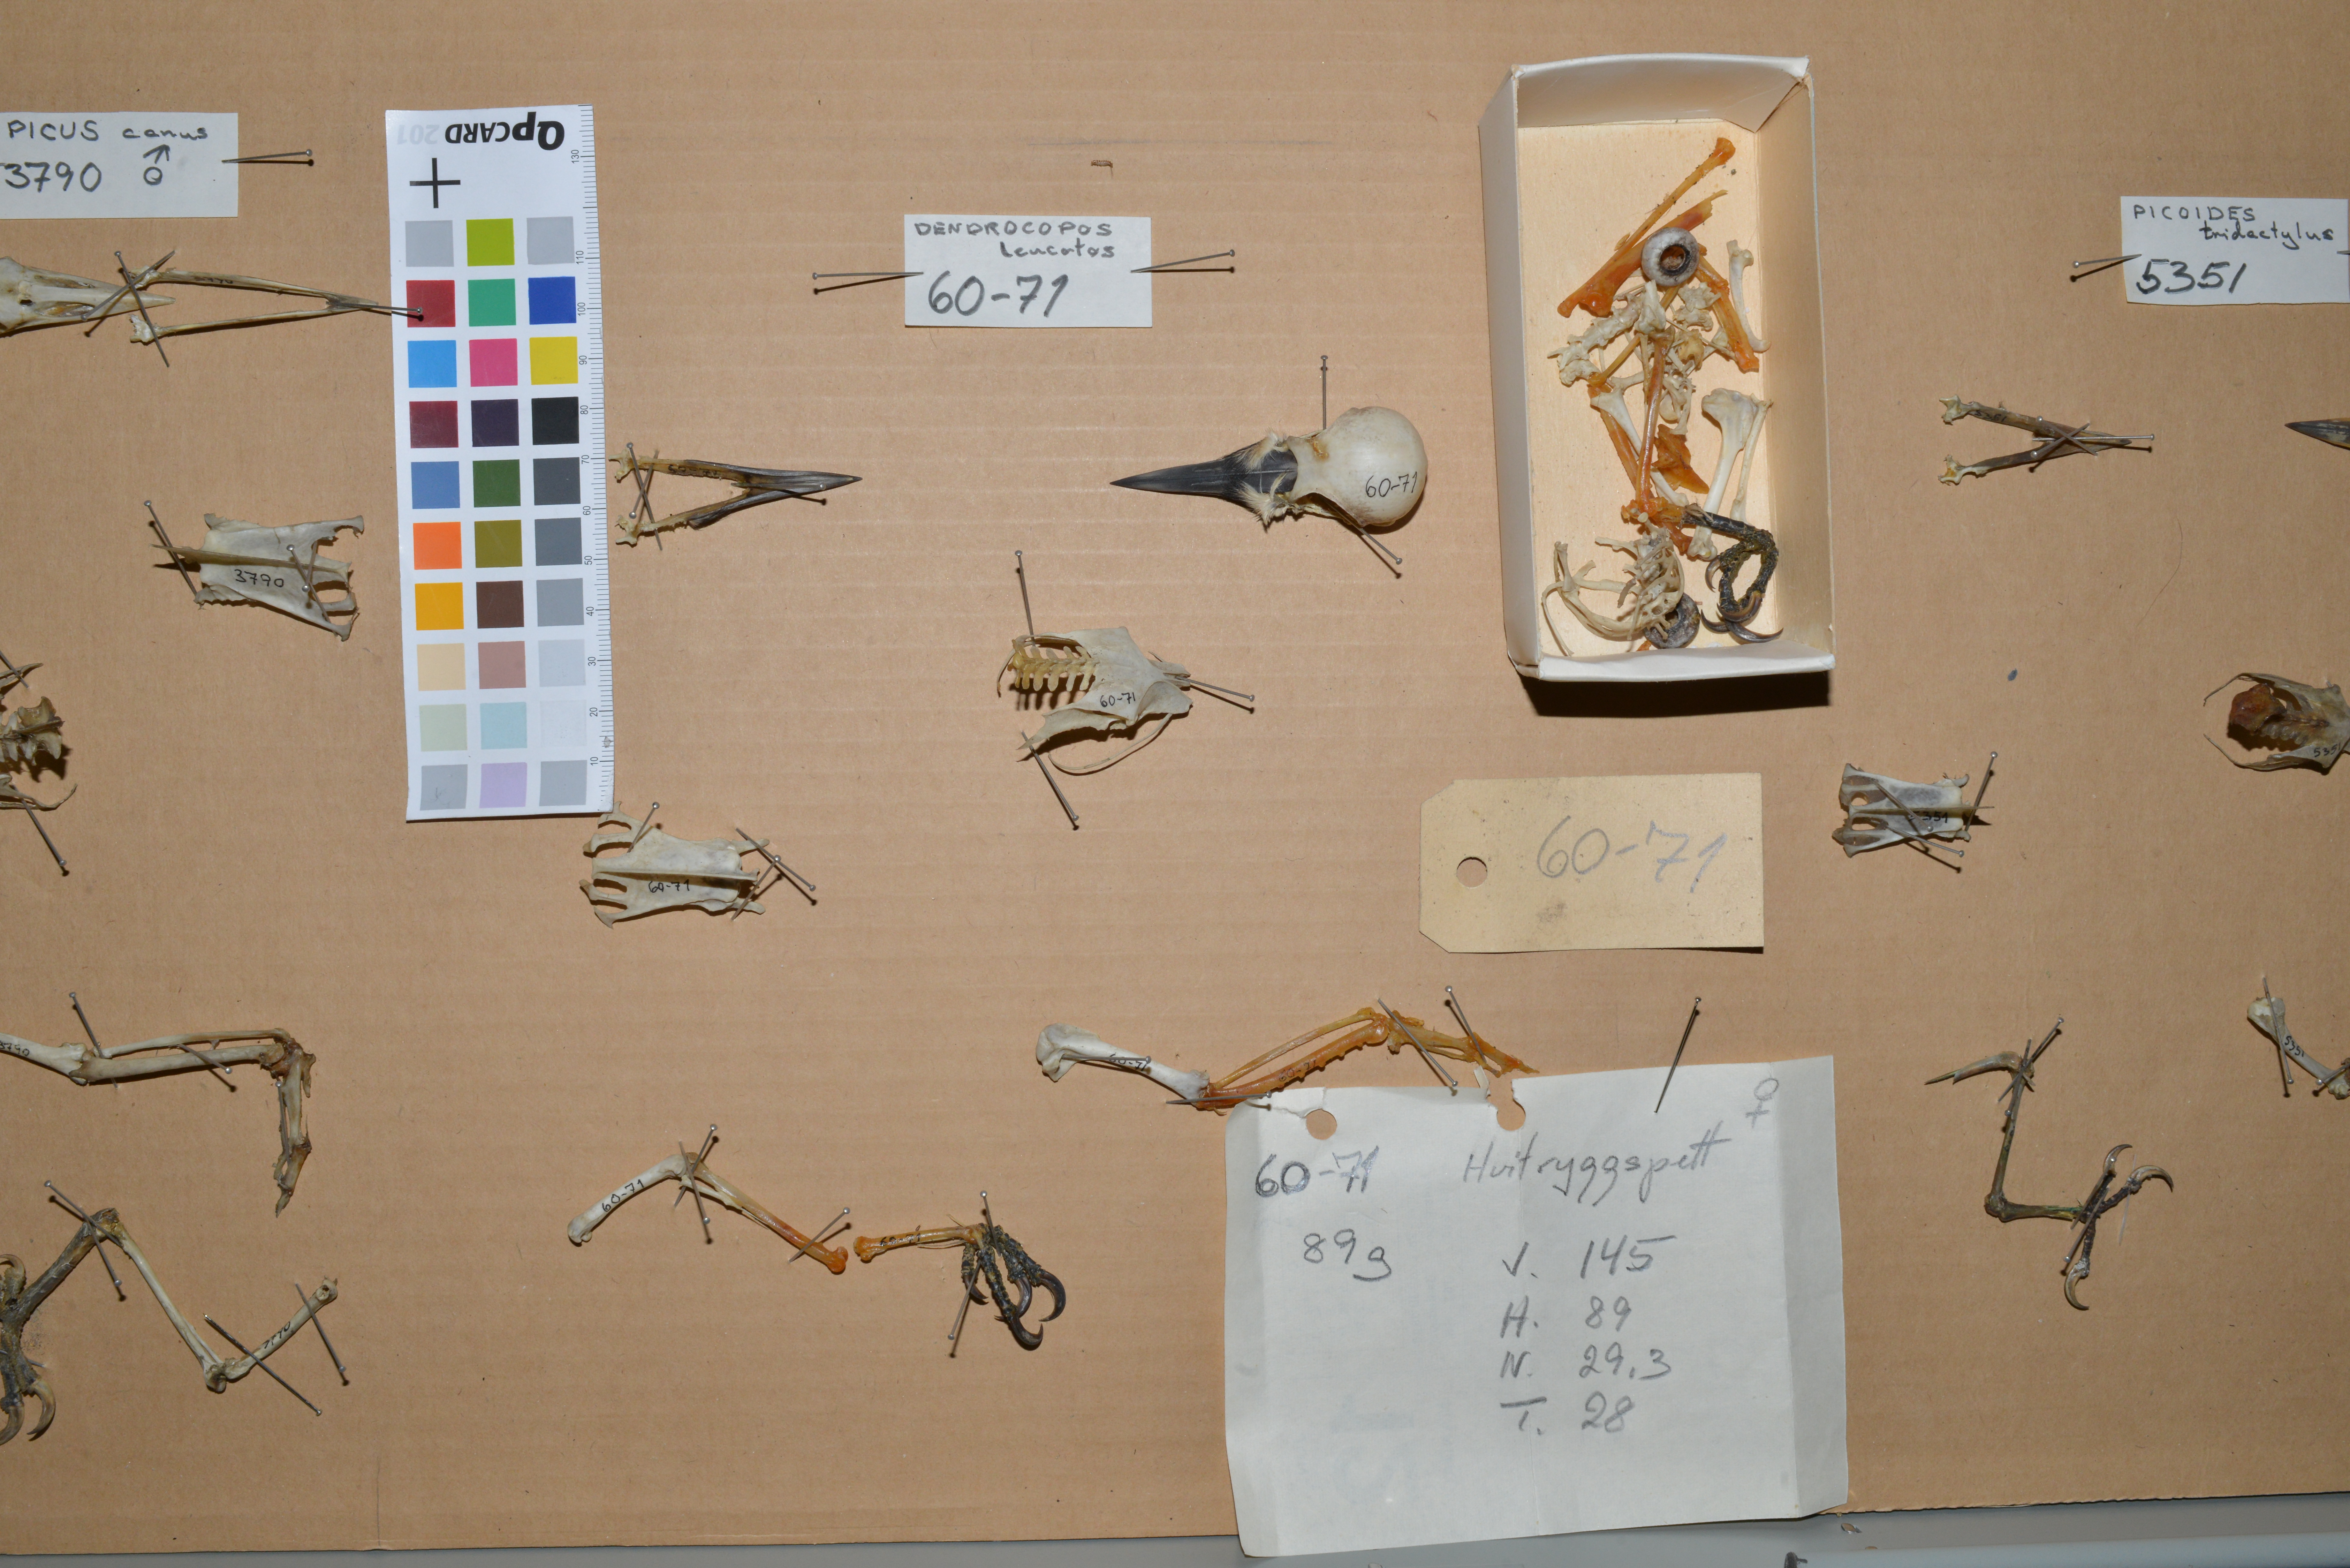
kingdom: Animalia
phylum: Chordata
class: Aves
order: Piciformes
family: Picidae
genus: Dendrocopos
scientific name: Dendrocopos leucotos
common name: White-backed woodpecker
